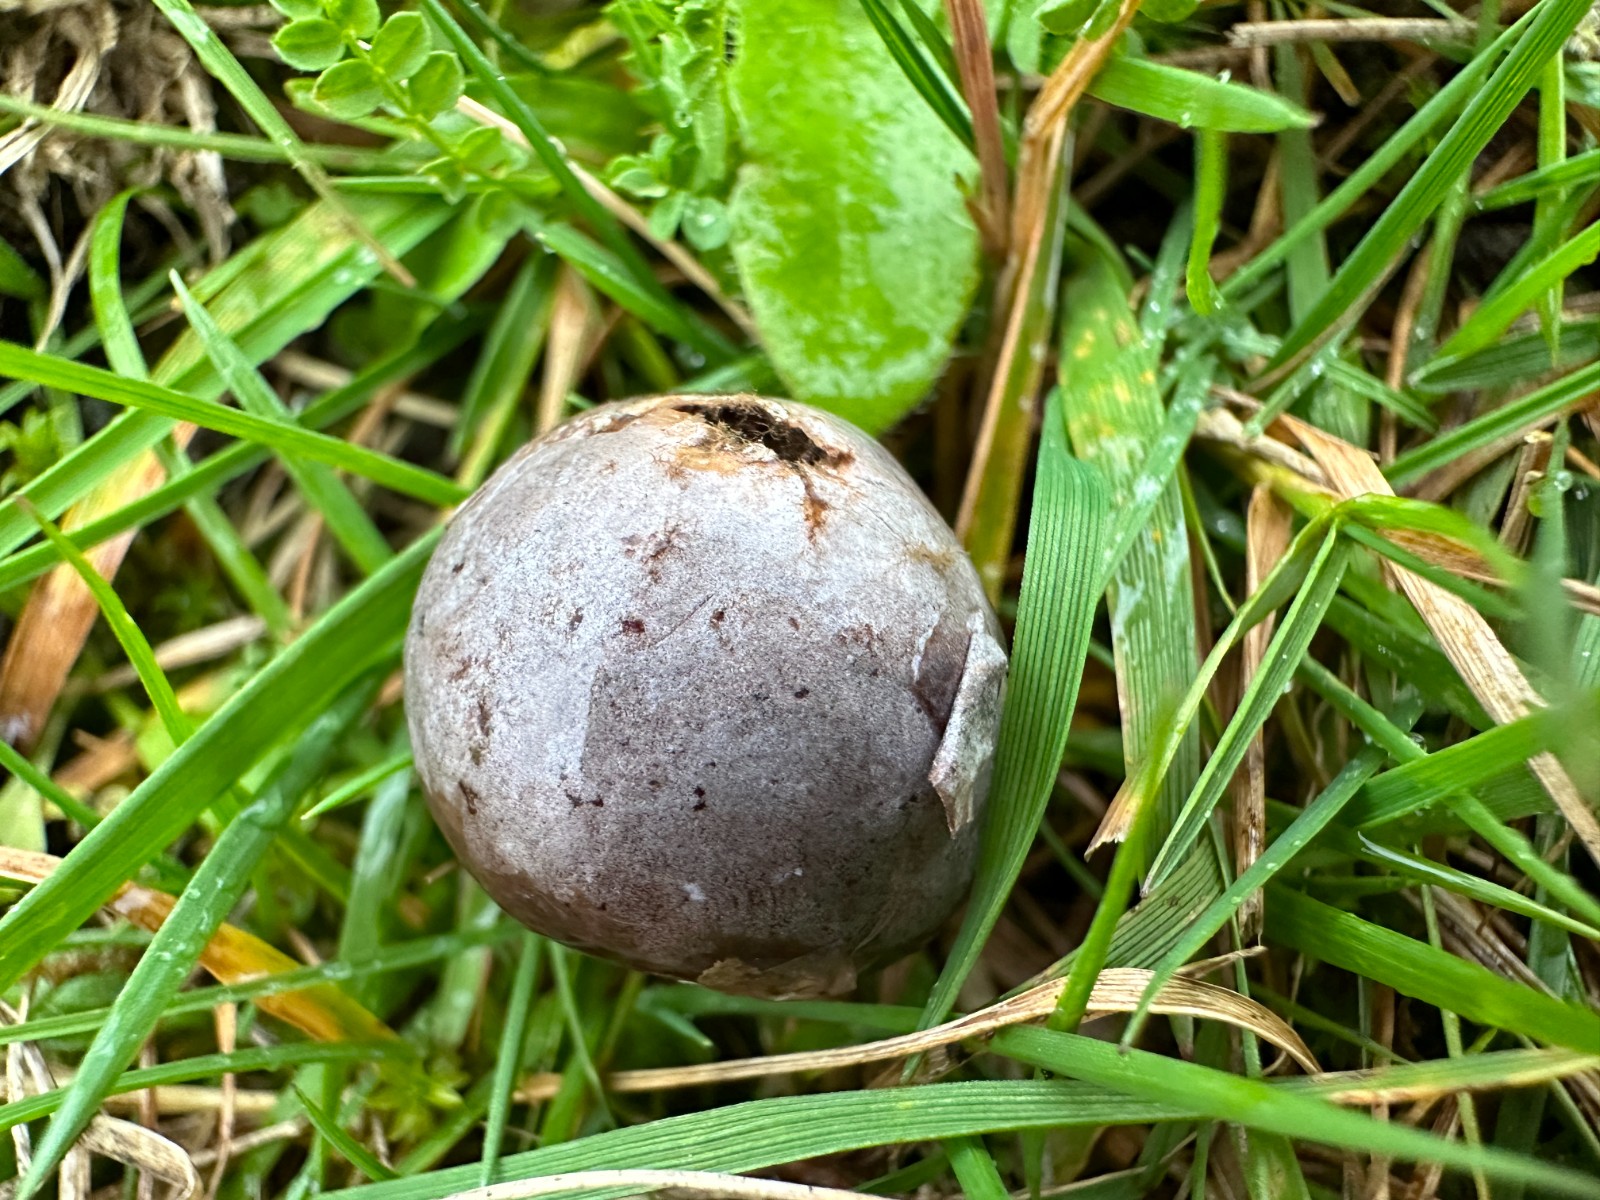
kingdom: Fungi
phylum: Basidiomycota
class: Agaricomycetes
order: Agaricales
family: Lycoperdaceae
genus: Bovista
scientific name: Bovista plumbea
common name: blygrå bovist
